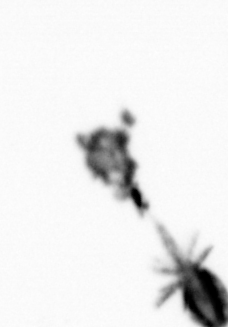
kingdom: Animalia
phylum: Arthropoda
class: Maxillopoda
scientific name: Maxillopoda
